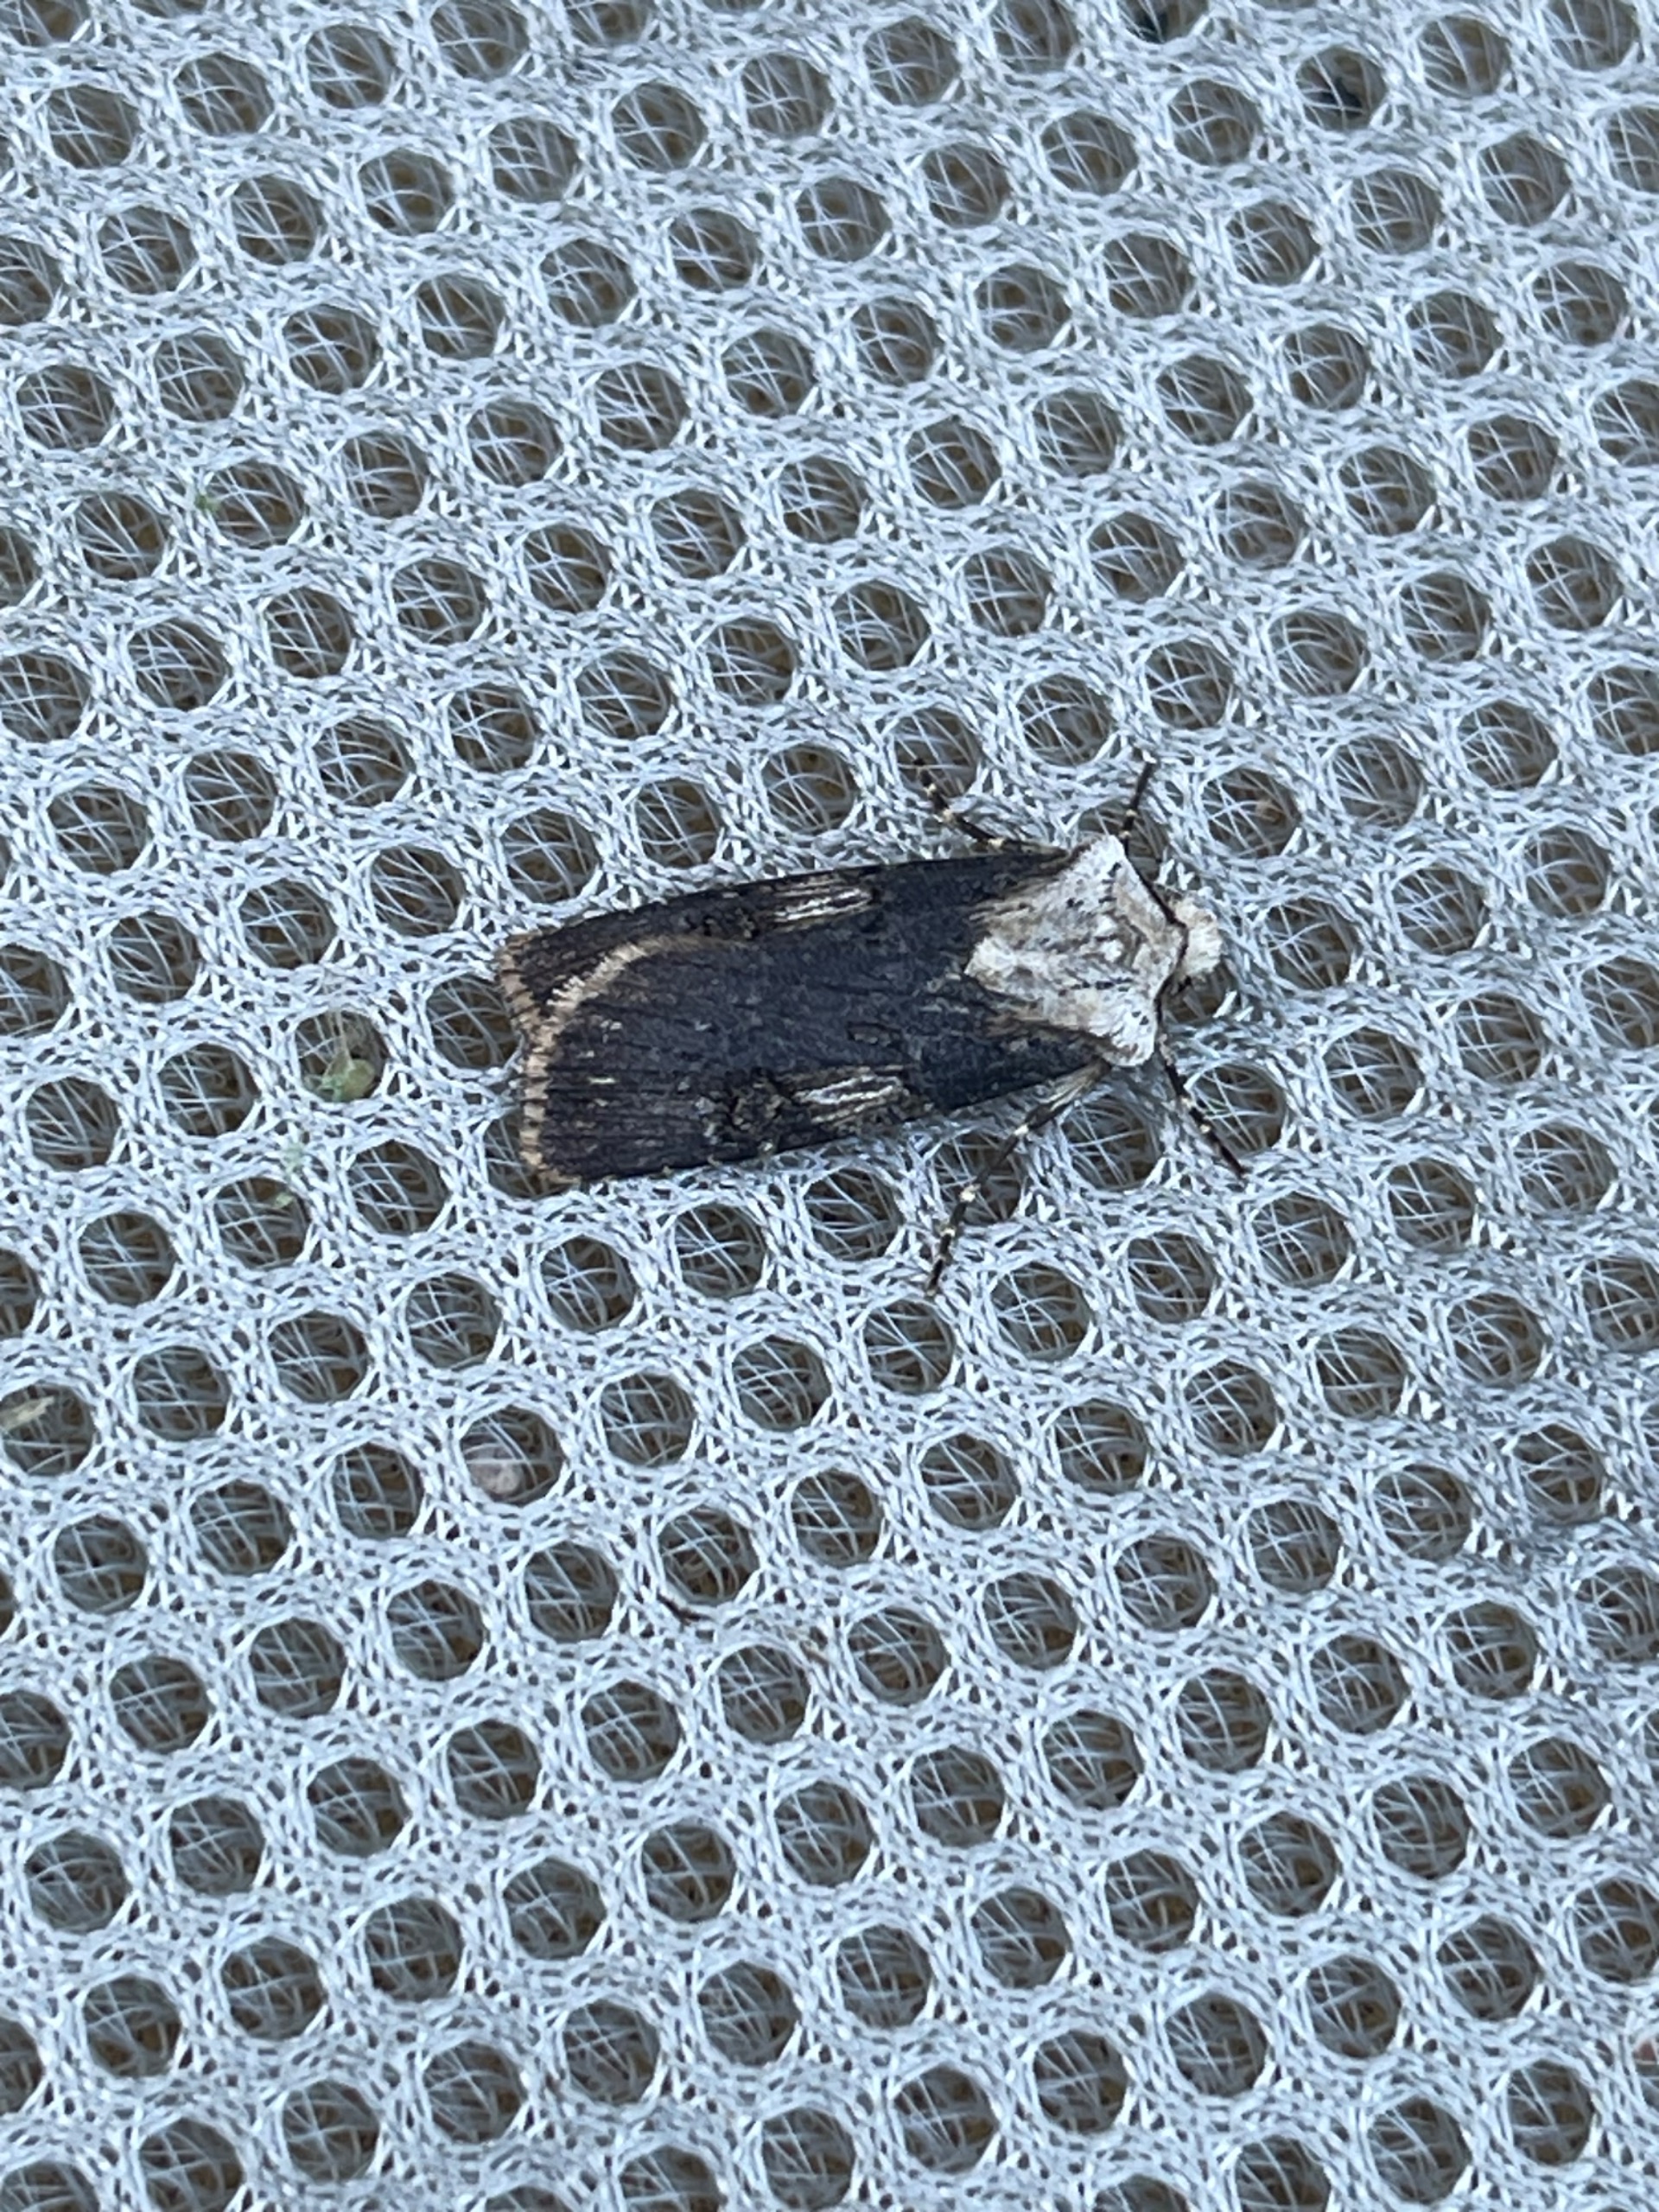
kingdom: Animalia
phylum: Arthropoda
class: Insecta
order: Lepidoptera
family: Noctuidae
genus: Agrotis
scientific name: Agrotis puta
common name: Frønnet landmand
